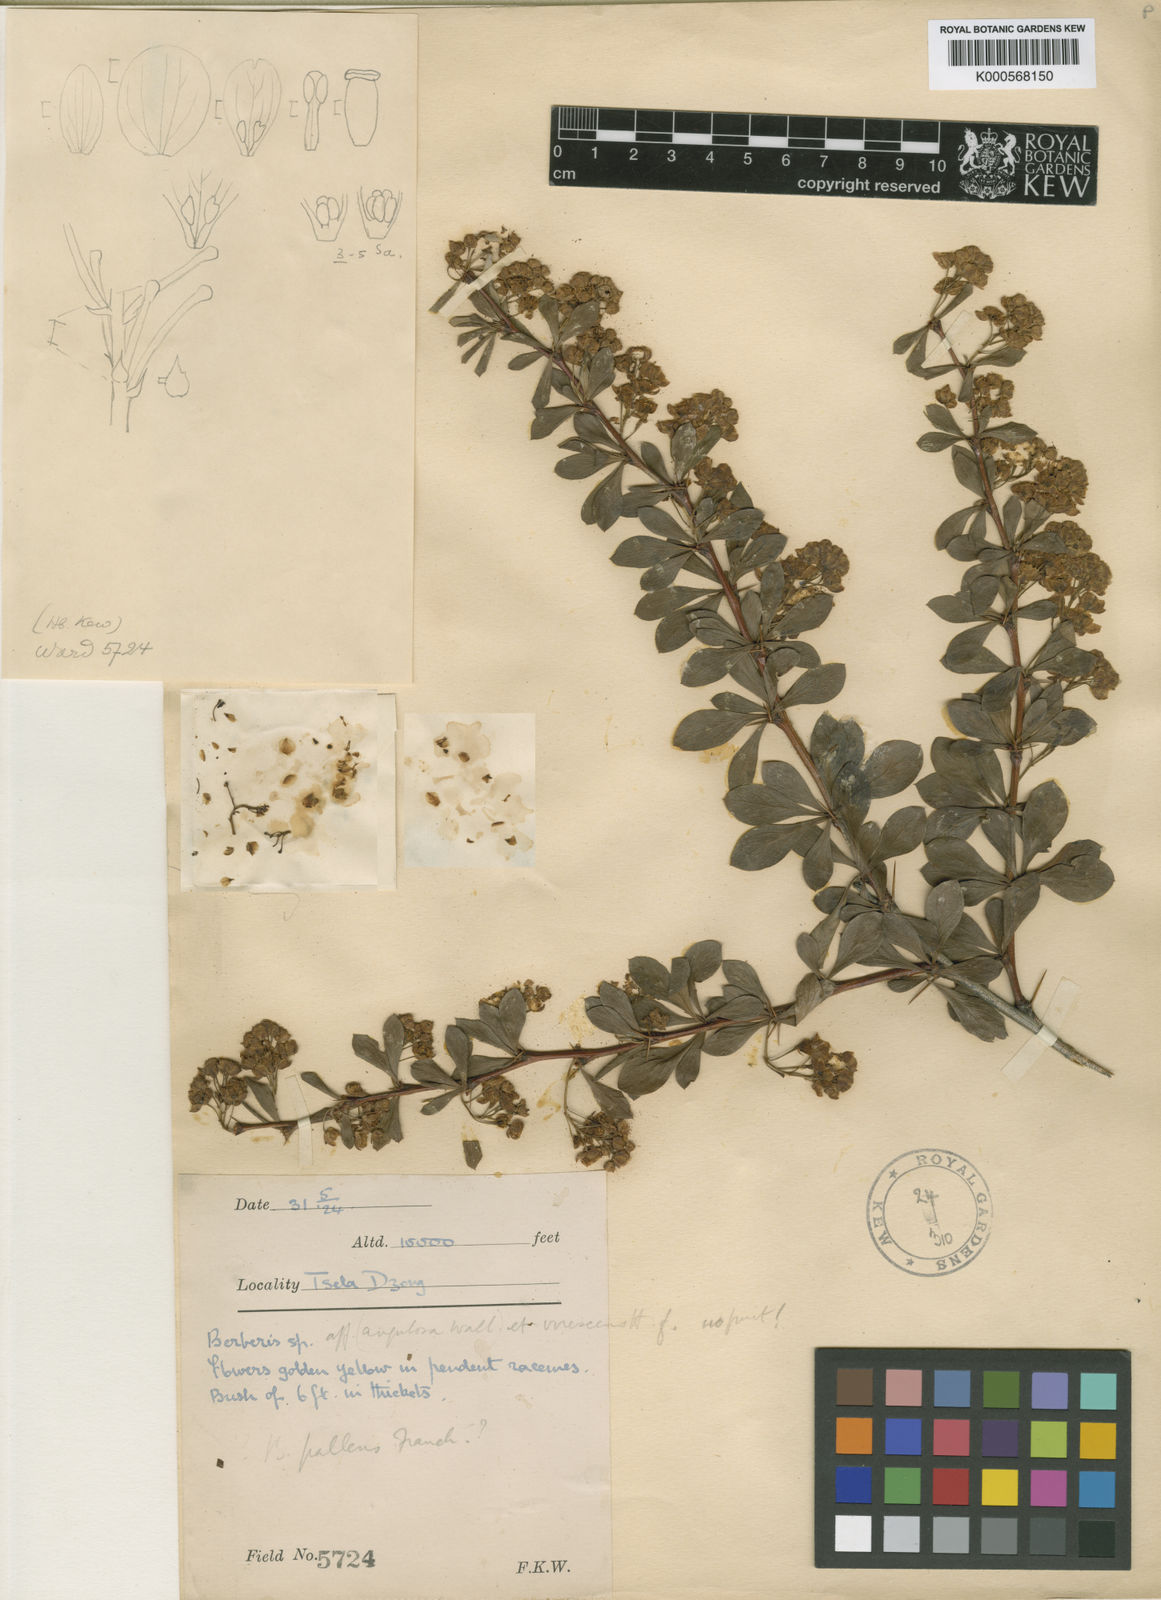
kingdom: Plantae
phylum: Tracheophyta
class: Magnoliopsida
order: Ranunculales
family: Berberidaceae
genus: Berberis
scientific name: Berberis virescens
